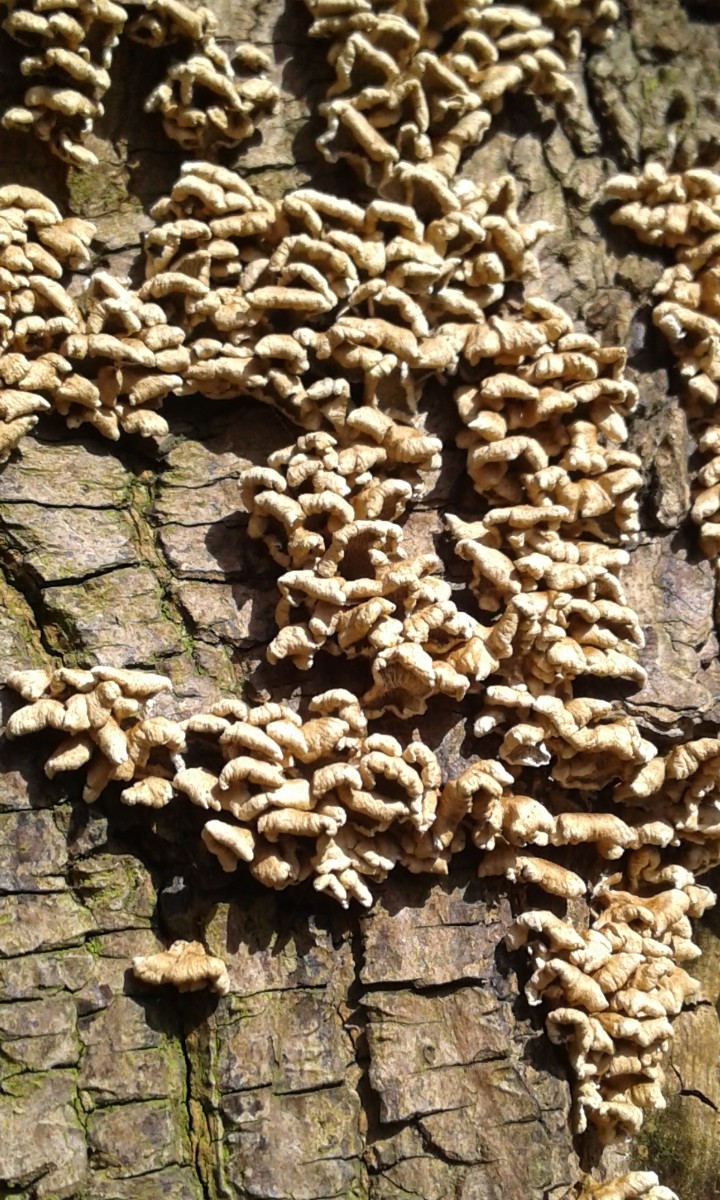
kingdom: Fungi
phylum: Basidiomycota
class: Agaricomycetes
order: Amylocorticiales
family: Amylocorticiaceae
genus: Plicaturopsis
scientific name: Plicaturopsis crispa
